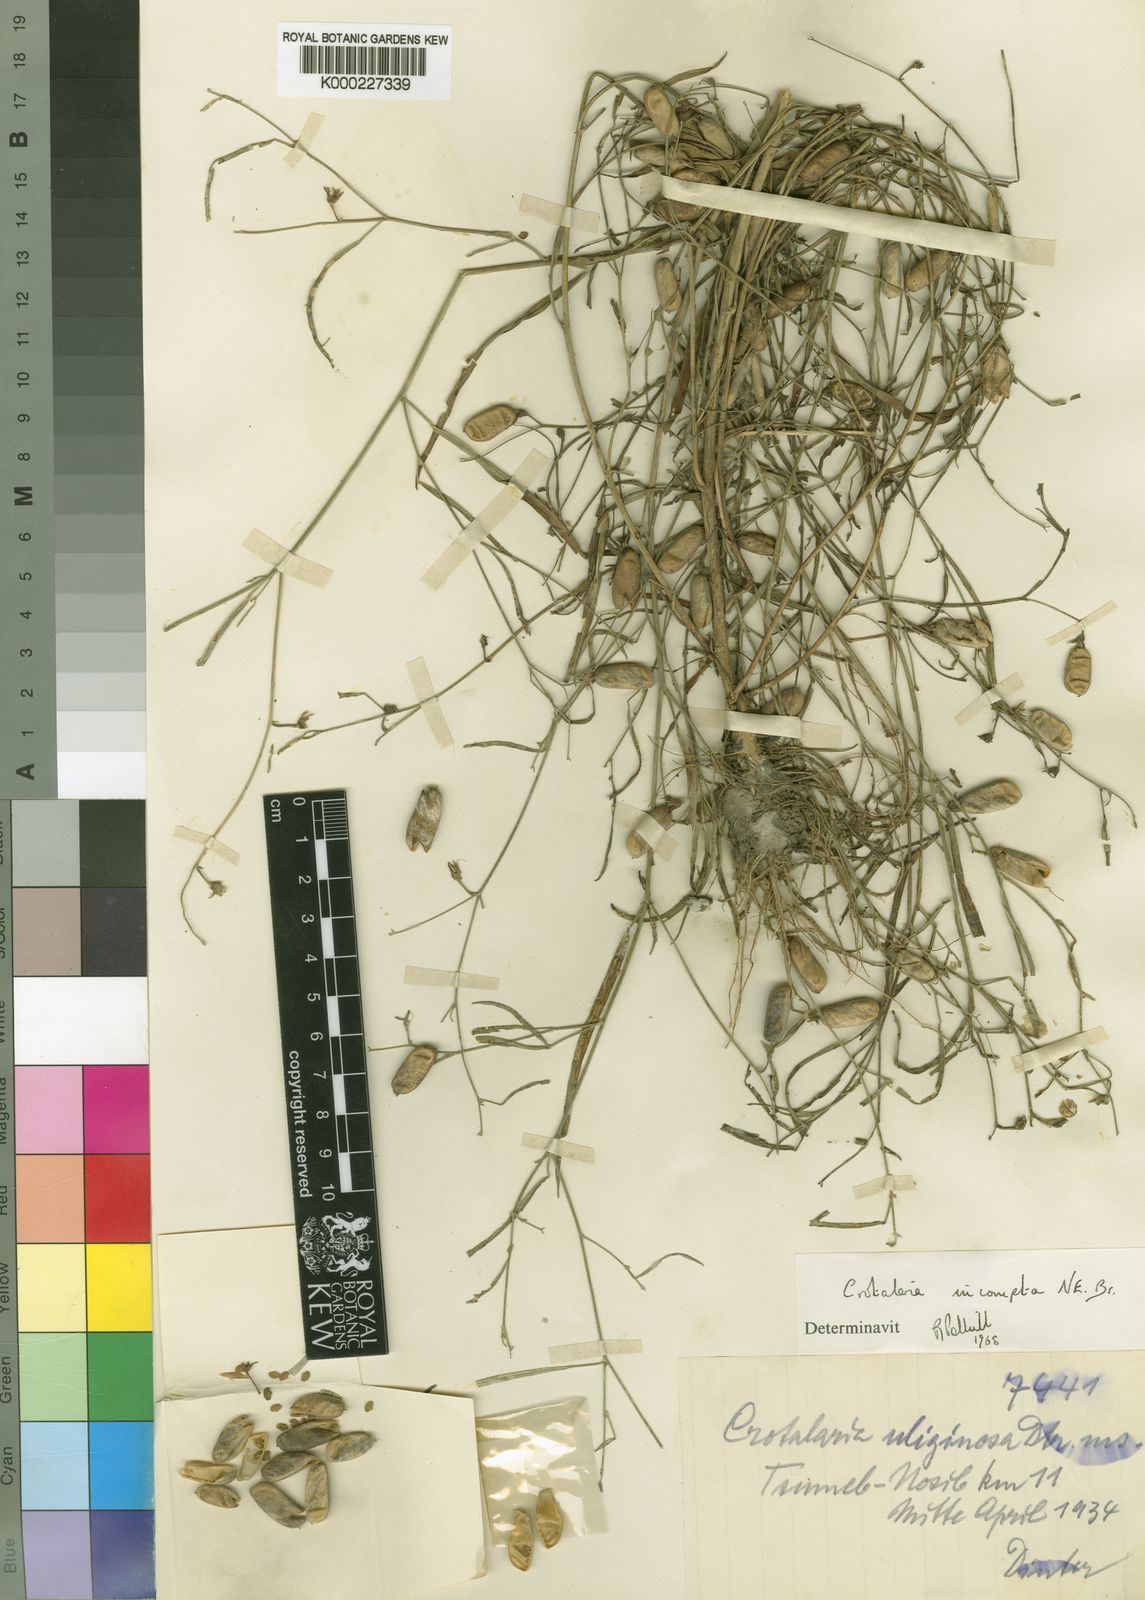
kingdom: Plantae
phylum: Tracheophyta
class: Magnoliopsida
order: Fabales
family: Fabaceae
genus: Crotalaria
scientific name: Crotalaria incompta
